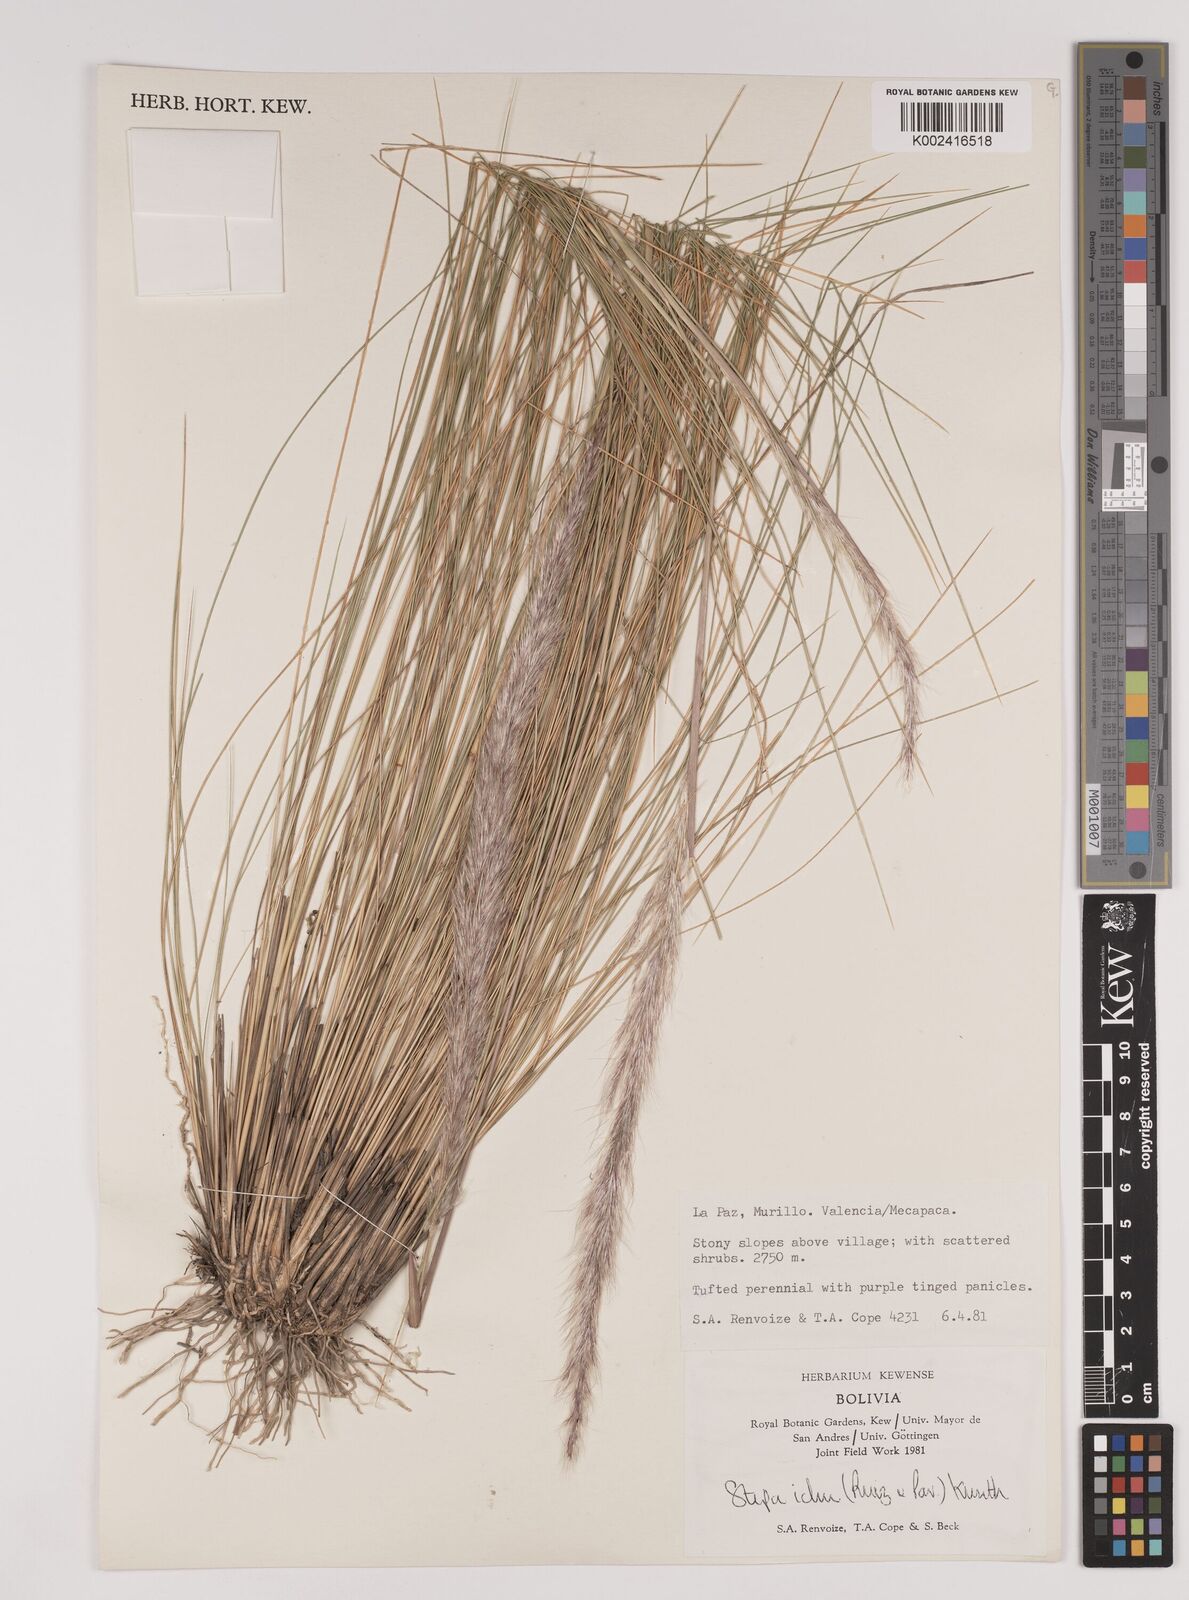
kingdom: Plantae
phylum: Tracheophyta
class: Liliopsida
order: Poales
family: Poaceae
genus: Jarava
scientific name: Jarava ichu
